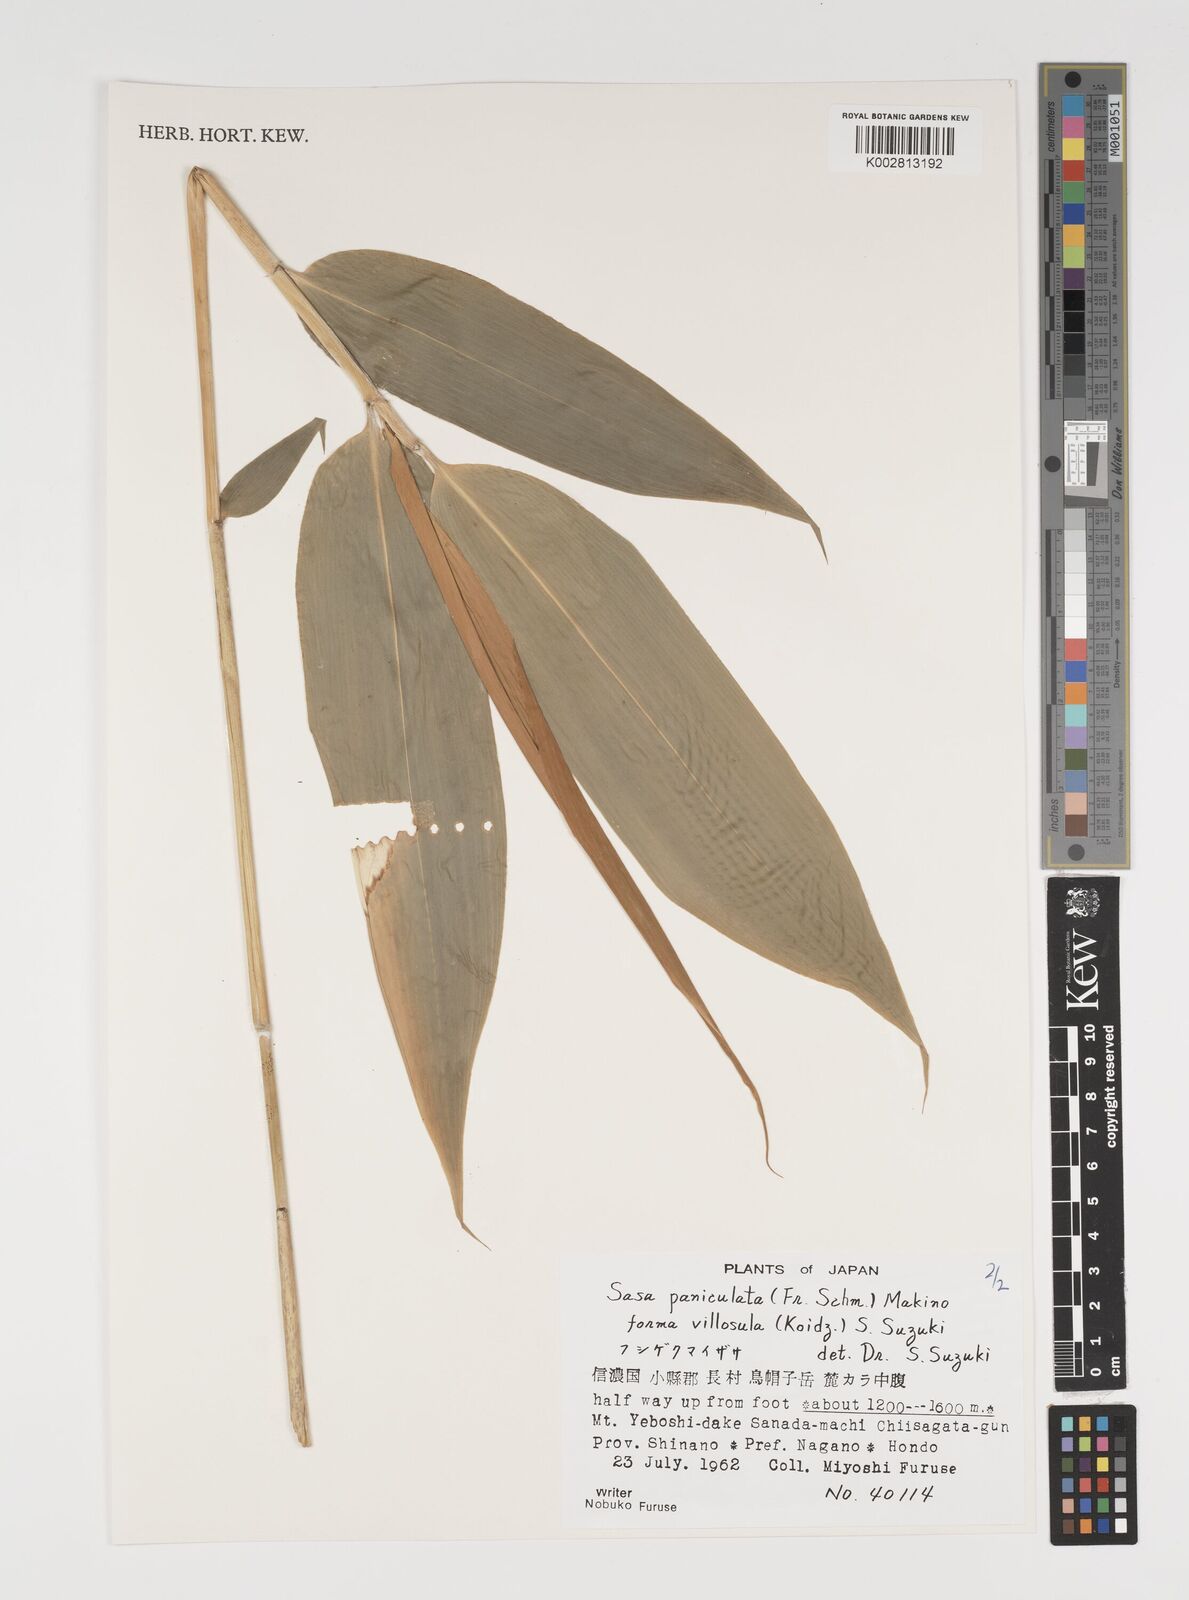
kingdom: Plantae
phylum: Tracheophyta
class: Liliopsida
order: Poales
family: Poaceae
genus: Sasa
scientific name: Sasa senanensis
